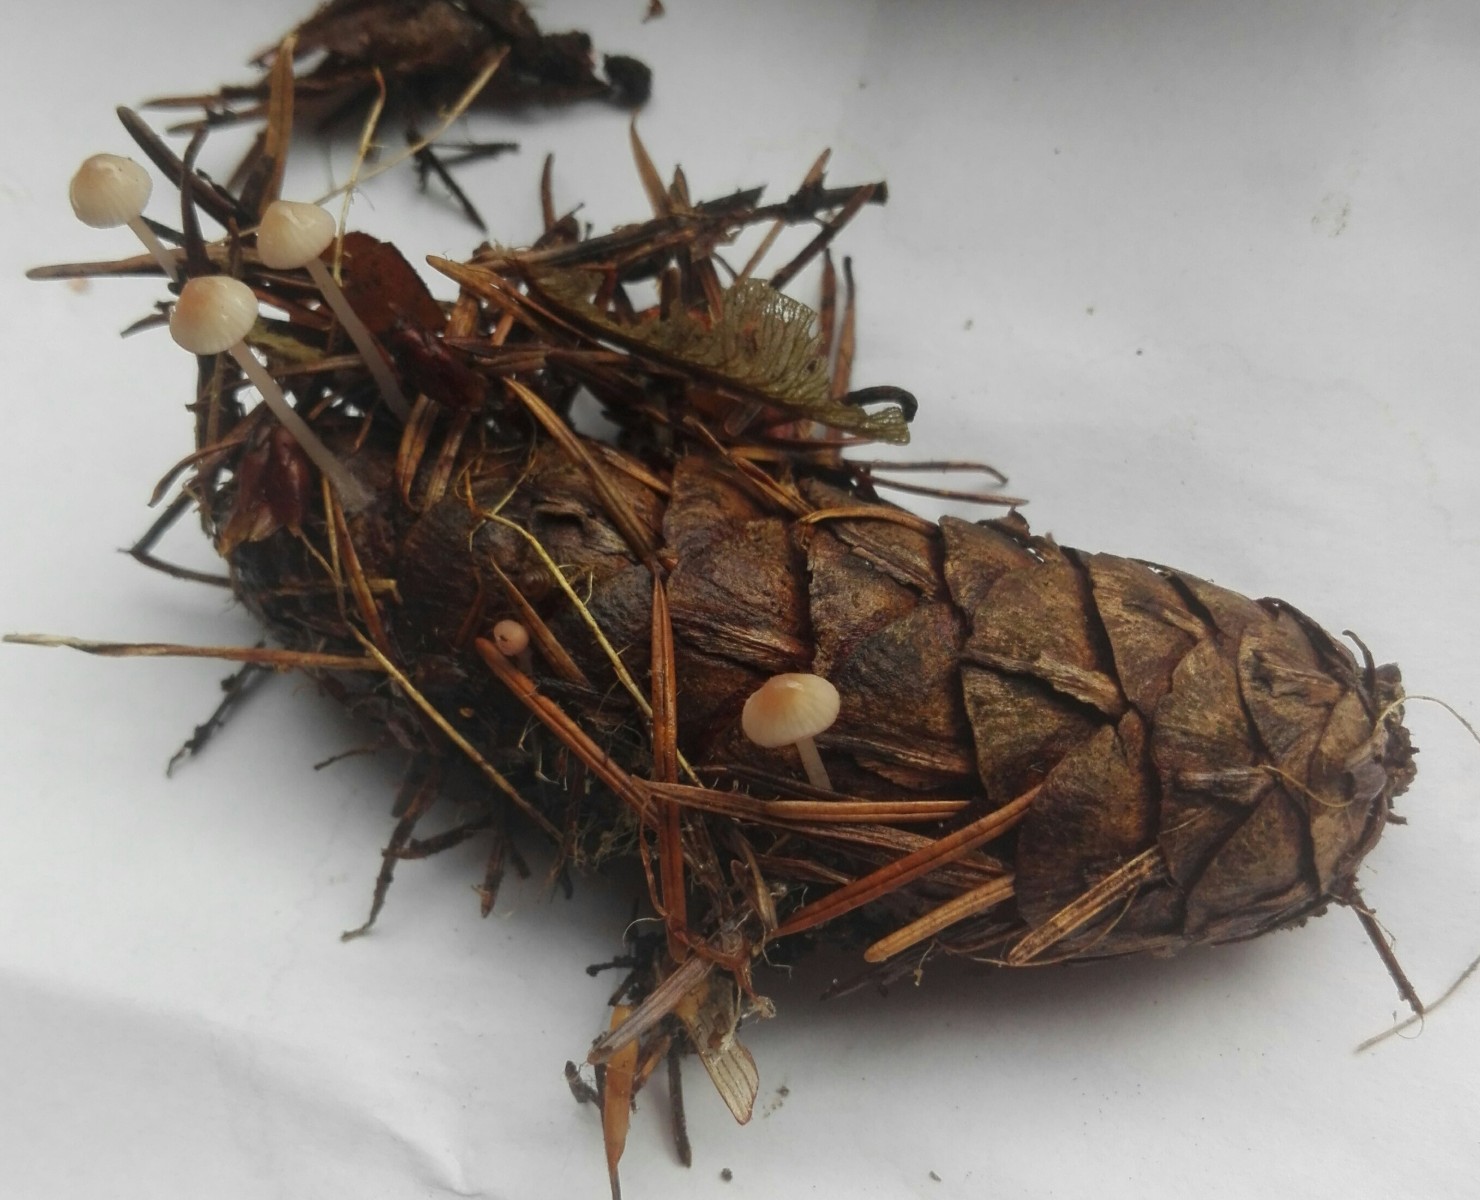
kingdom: Fungi
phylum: Basidiomycota
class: Agaricomycetes
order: Agaricales
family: Mycenaceae
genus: Mycena
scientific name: Mycena sanguinolenta
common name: rødmælket huesvamp
